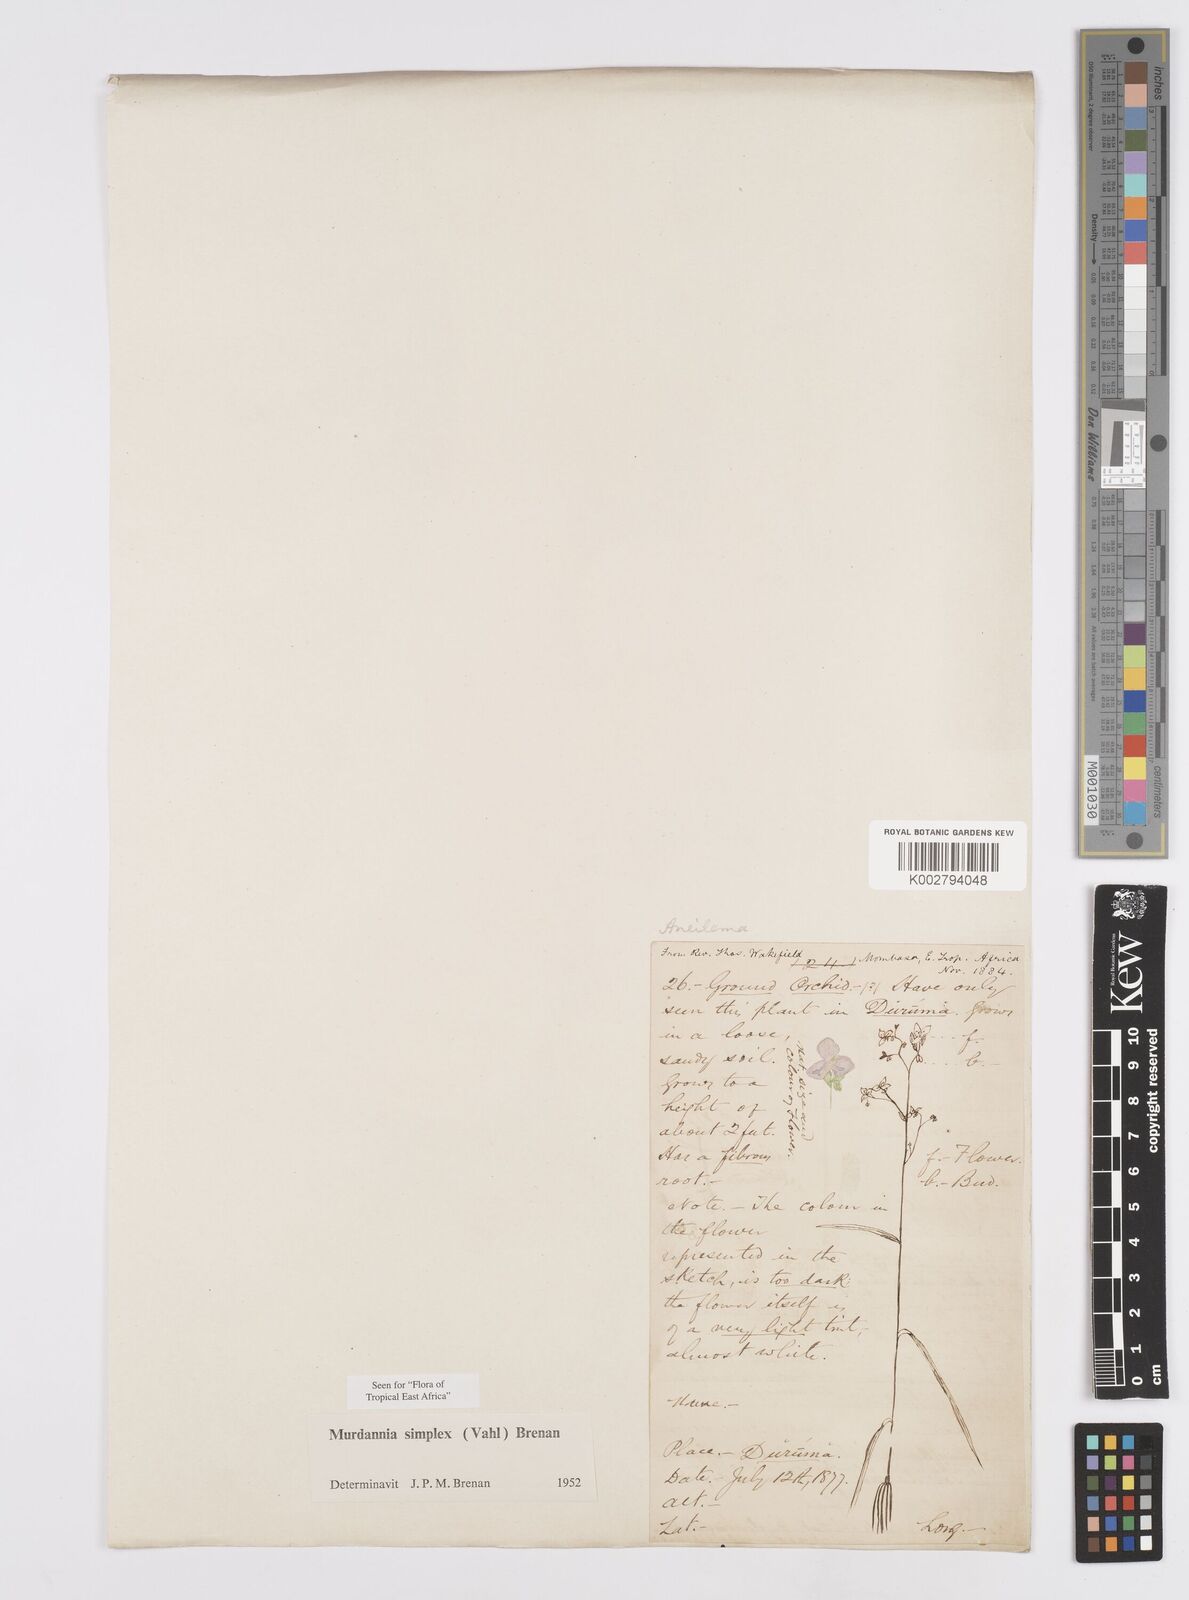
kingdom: Plantae
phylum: Tracheophyta
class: Liliopsida
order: Commelinales
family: Commelinaceae
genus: Murdannia
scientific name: Murdannia simplex
